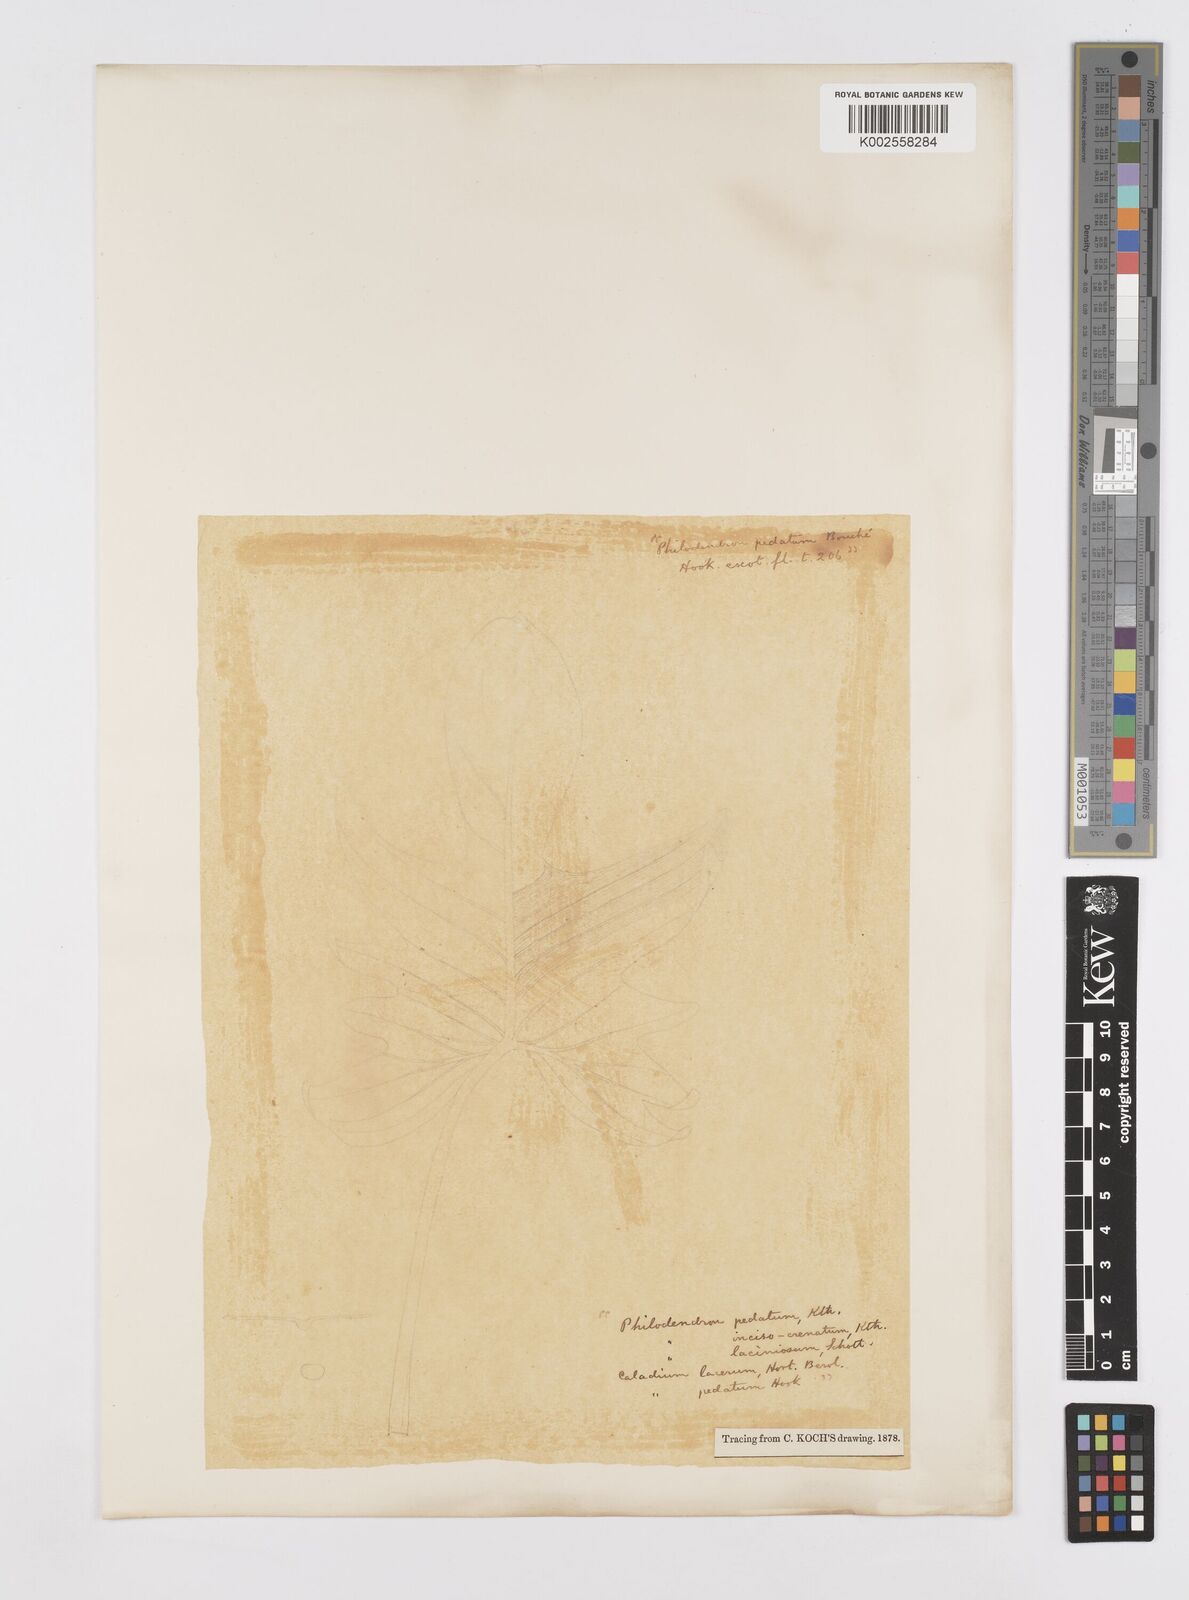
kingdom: Plantae
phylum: Tracheophyta
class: Liliopsida
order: Alismatales
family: Araceae
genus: Philodendron
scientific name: Philodendron pedatum
